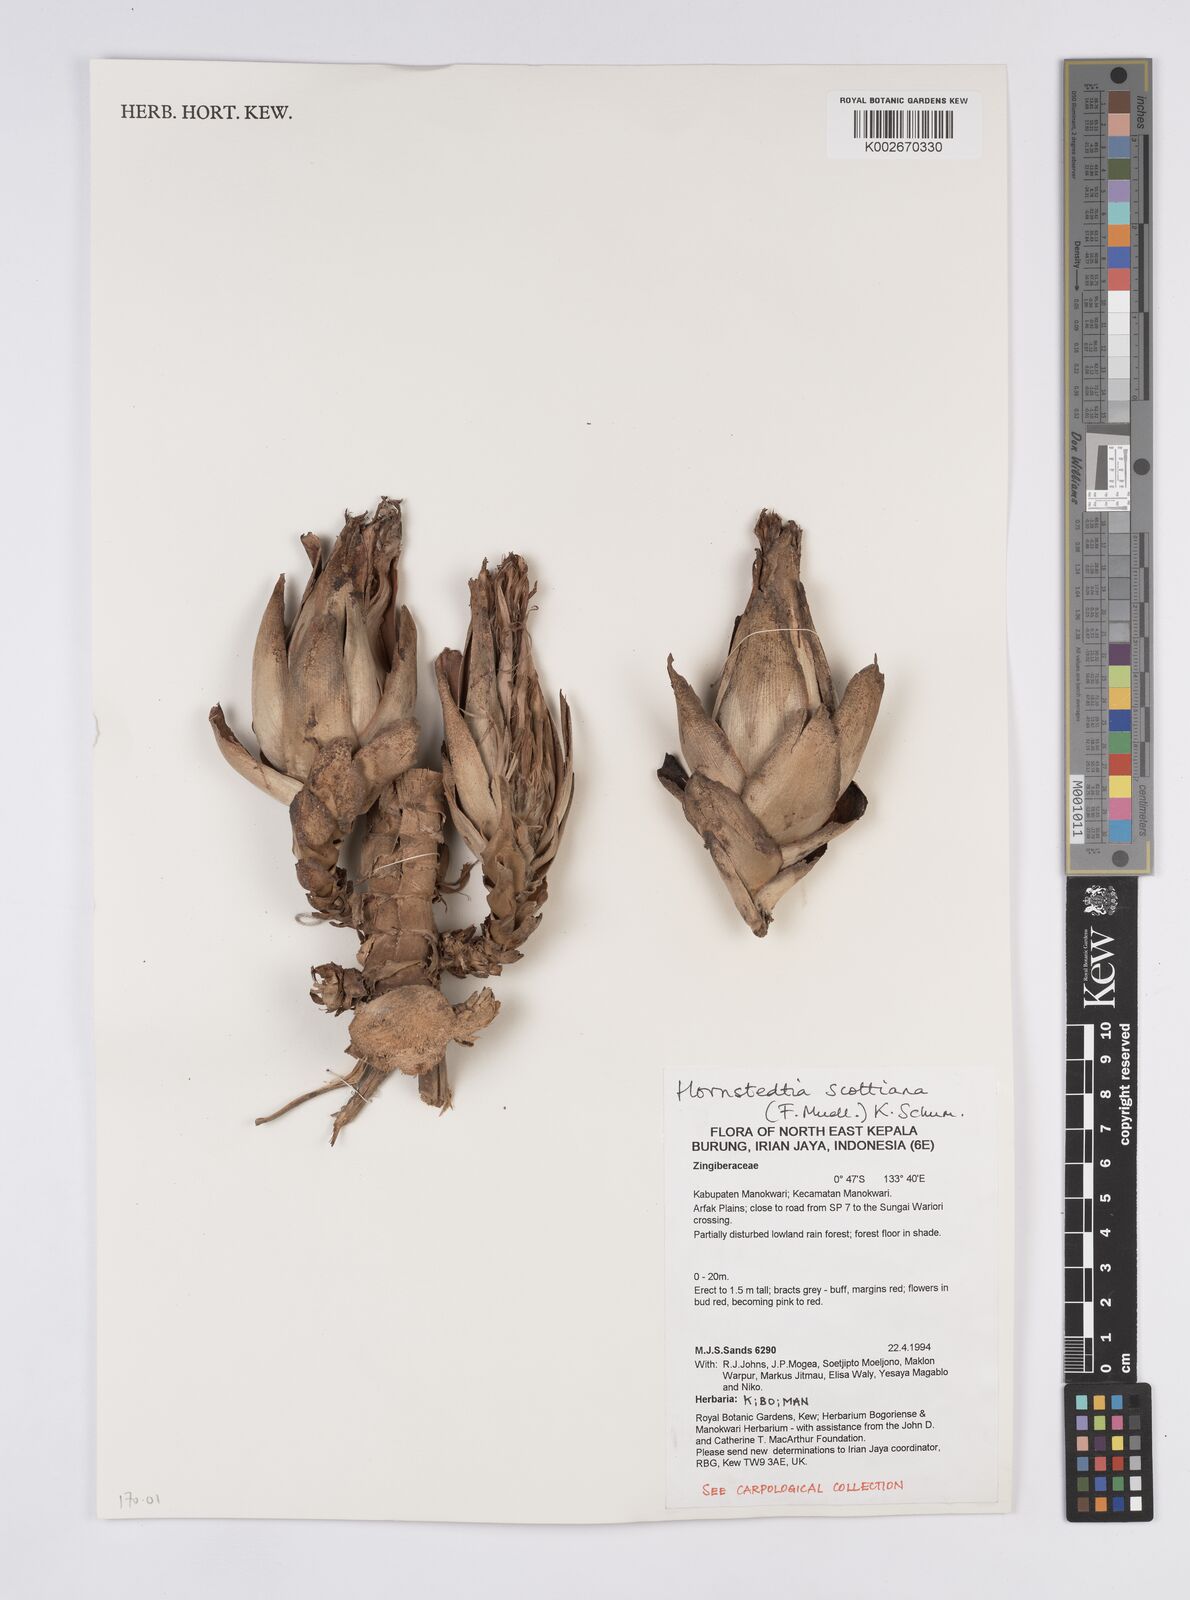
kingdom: Plantae
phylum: Tracheophyta
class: Liliopsida
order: Zingiberales
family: Zingiberaceae
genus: Hornstedtia
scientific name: Hornstedtia scottiana
